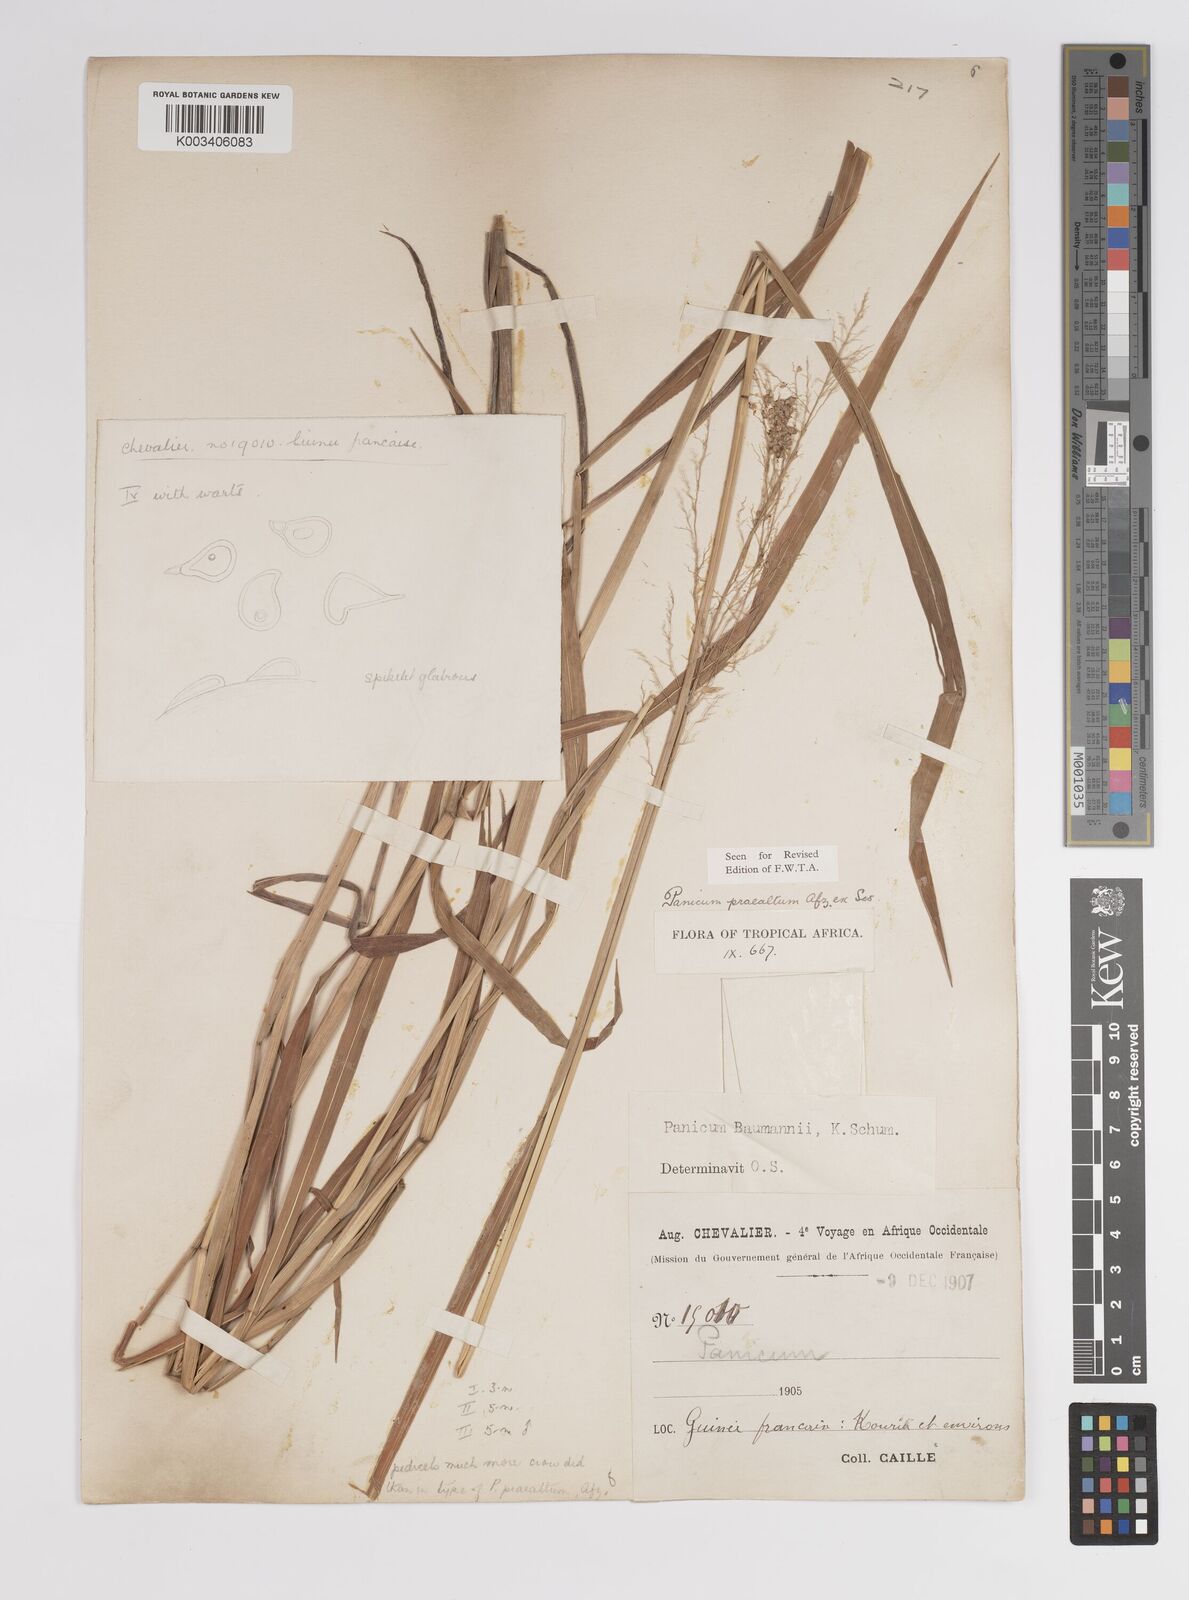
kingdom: Plantae
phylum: Tracheophyta
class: Liliopsida
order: Poales
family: Poaceae
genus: Trichanthecium
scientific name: Trichanthecium praealtum
